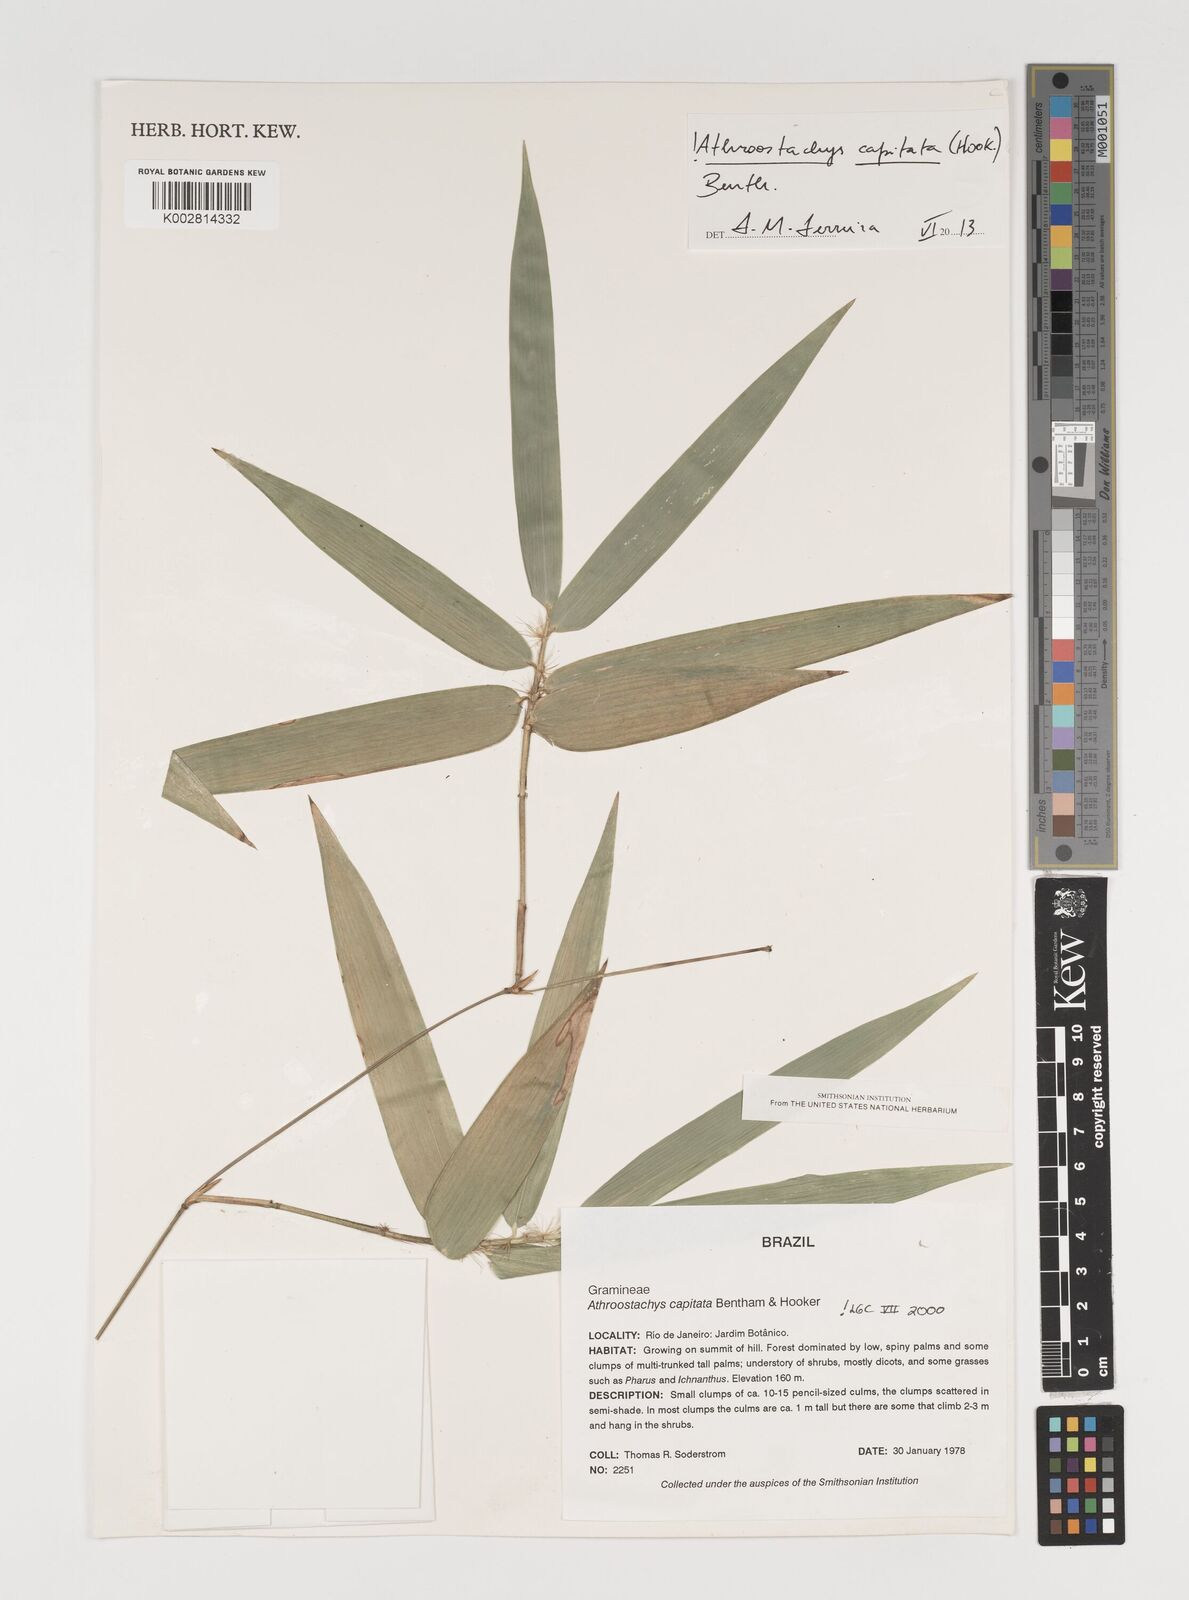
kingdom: Plantae
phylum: Tracheophyta
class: Liliopsida
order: Poales
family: Poaceae
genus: Athroostachys
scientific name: Athroostachys capitata
